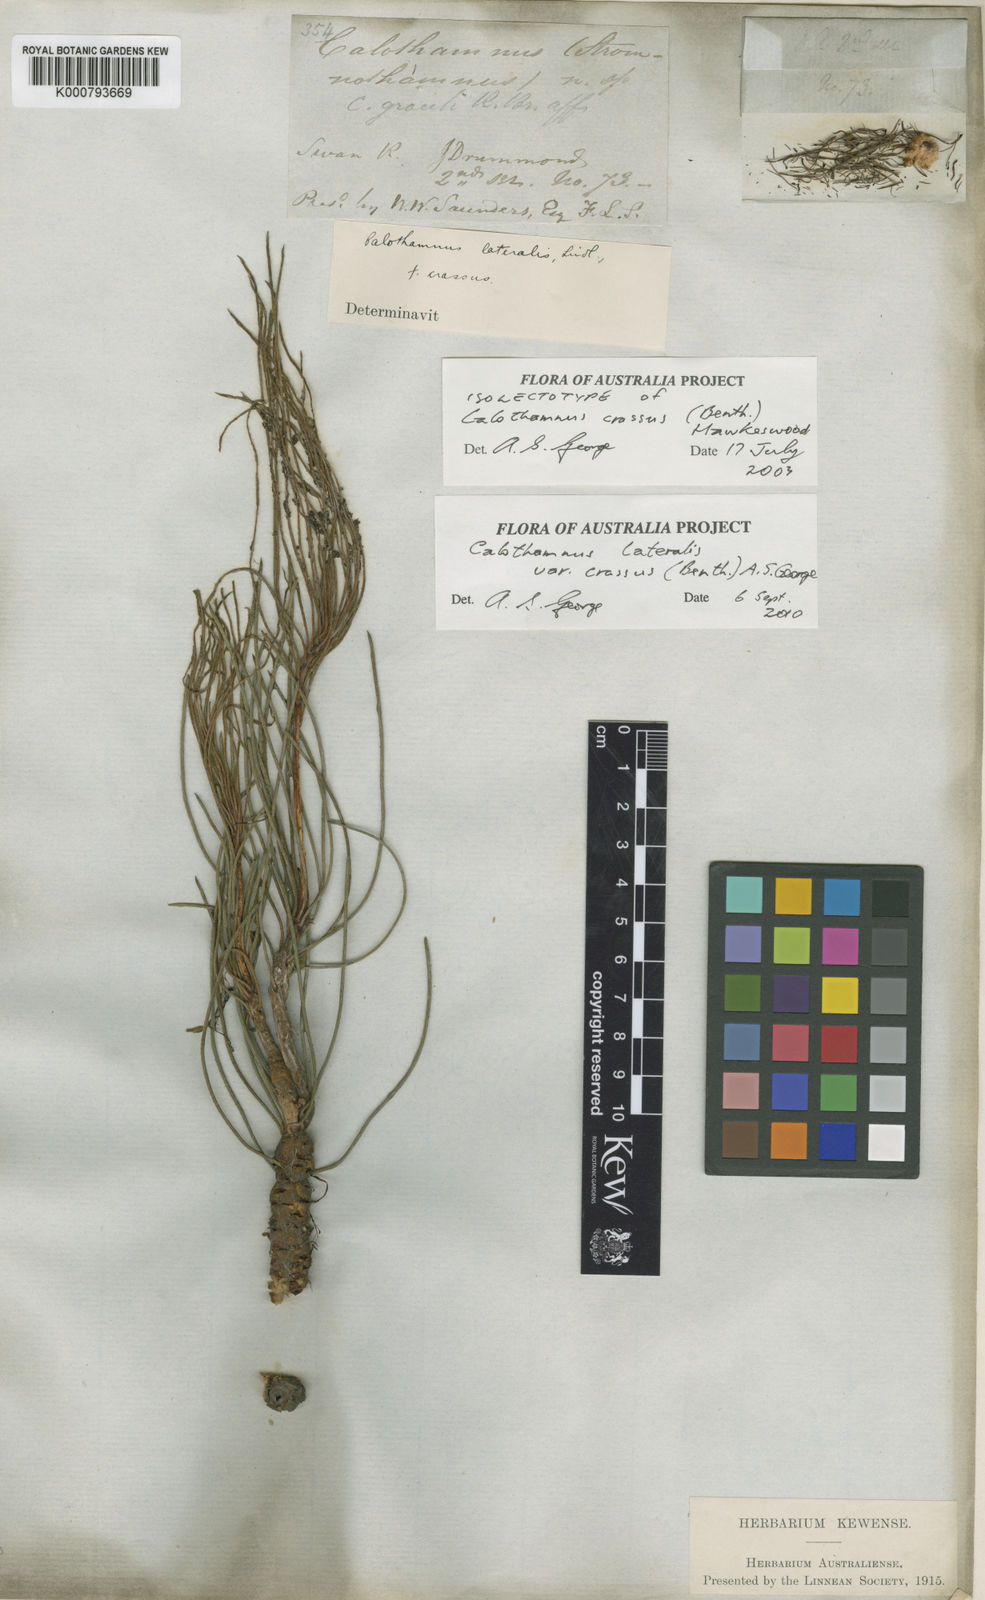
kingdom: Plantae
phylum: Tracheophyta
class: Magnoliopsida
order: Myrtales
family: Myrtaceae
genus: Melaleuca
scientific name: Melaleuca alilateralis
